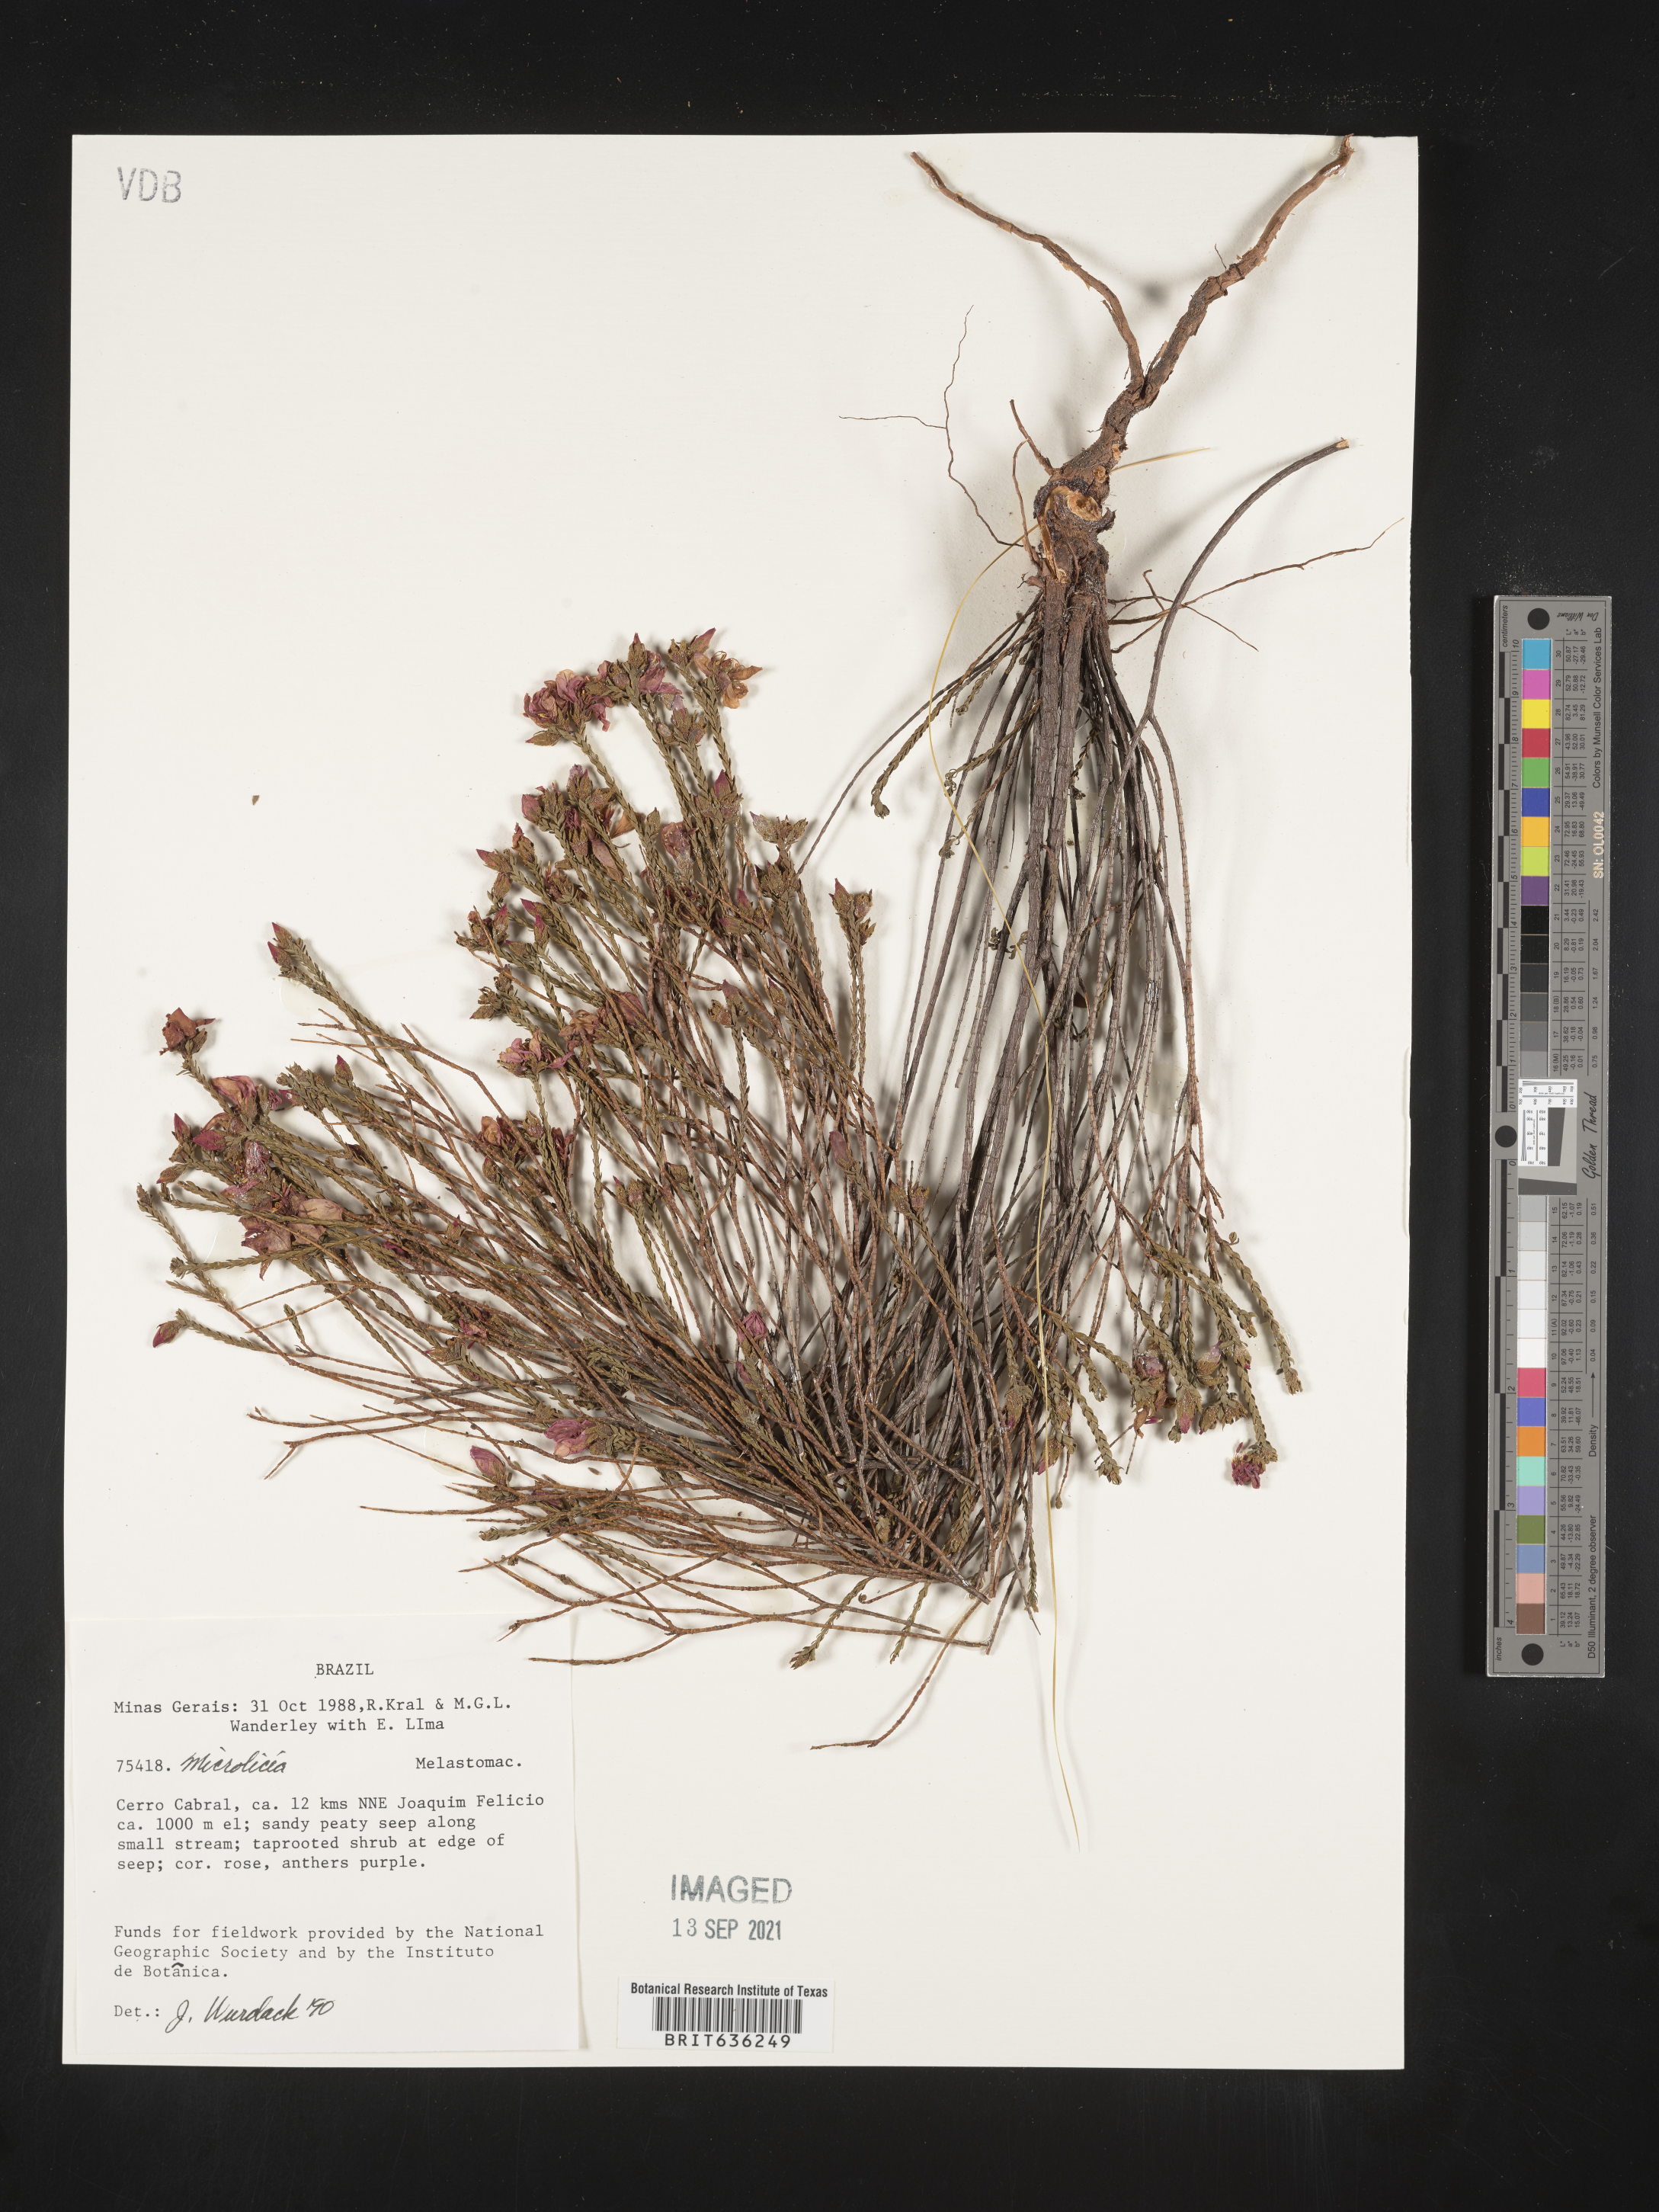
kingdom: Plantae
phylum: Tracheophyta
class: Magnoliopsida
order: Myrtales
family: Melastomataceae
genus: Microlicia
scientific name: Microlicia
